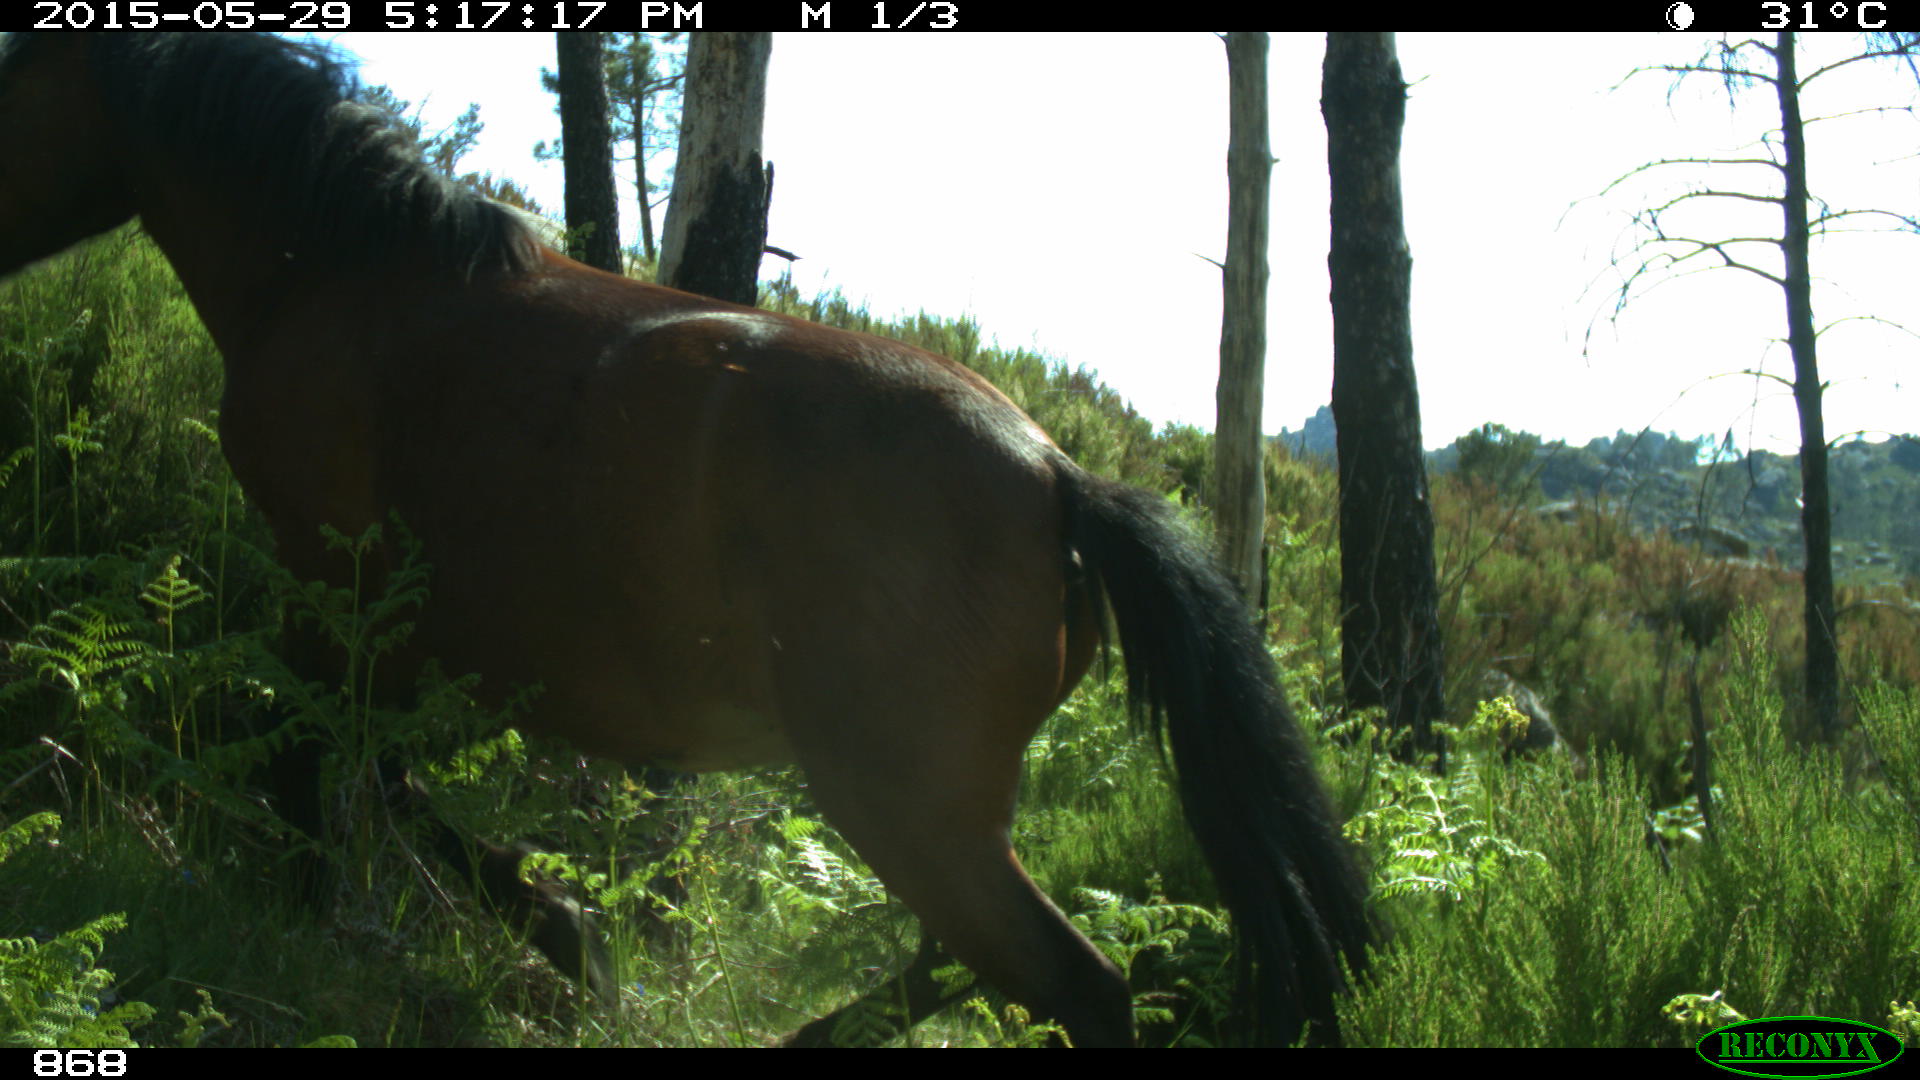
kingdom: Animalia
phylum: Chordata
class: Mammalia
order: Perissodactyla
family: Equidae
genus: Equus
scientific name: Equus caballus
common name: Horse
